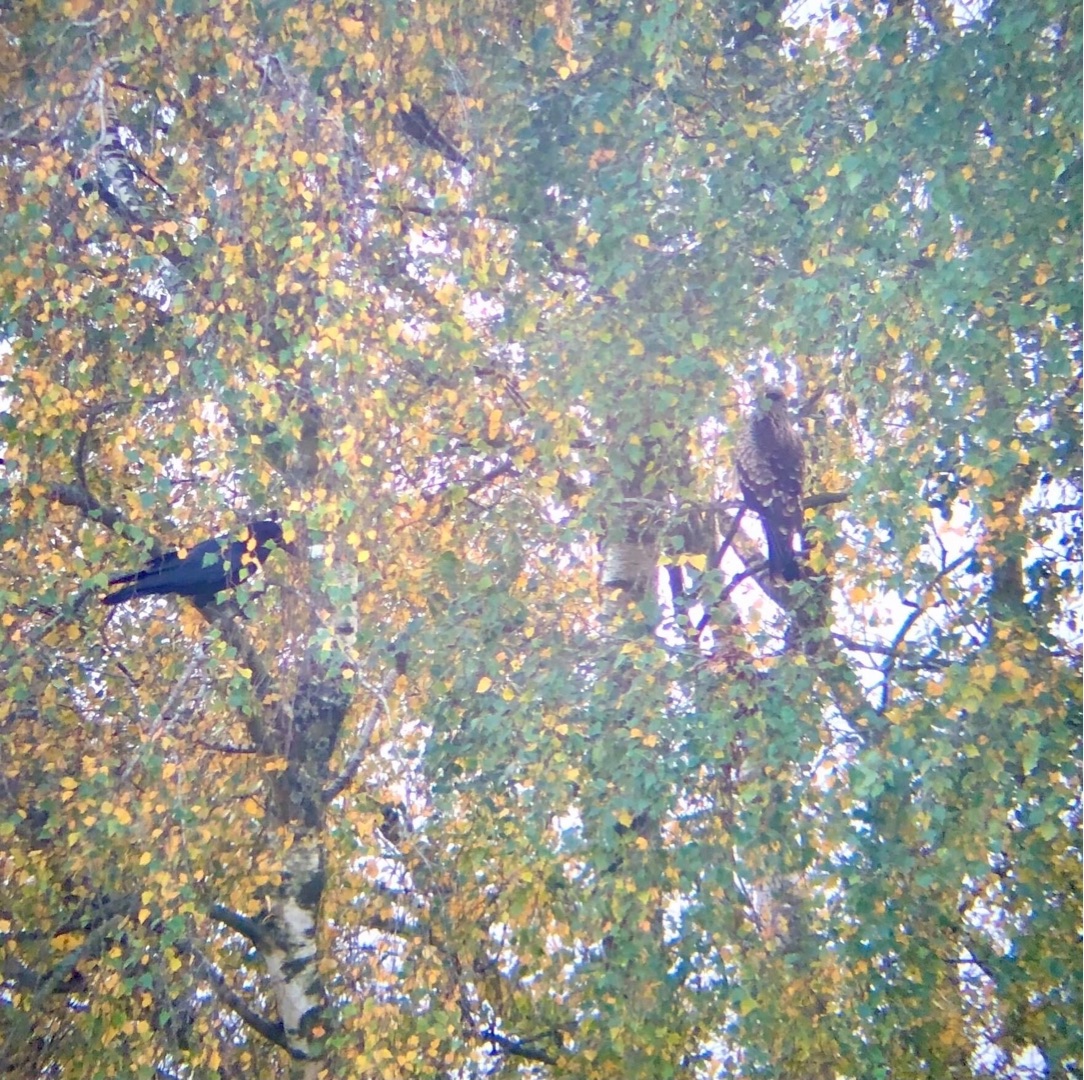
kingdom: Animalia
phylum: Chordata
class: Aves
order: Accipitriformes
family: Accipitridae
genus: Milvus
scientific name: Milvus migrans
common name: Sort glente
